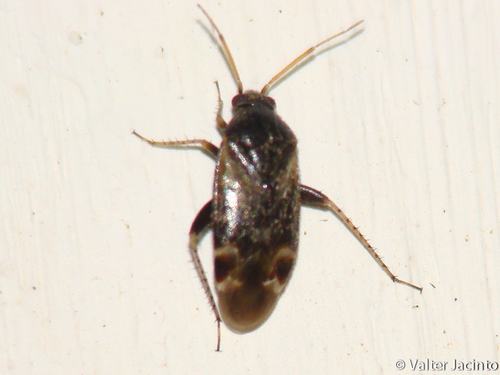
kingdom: Animalia
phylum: Arthropoda
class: Insecta
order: Hemiptera
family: Miridae
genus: Psallus
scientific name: Psallus perrisi
